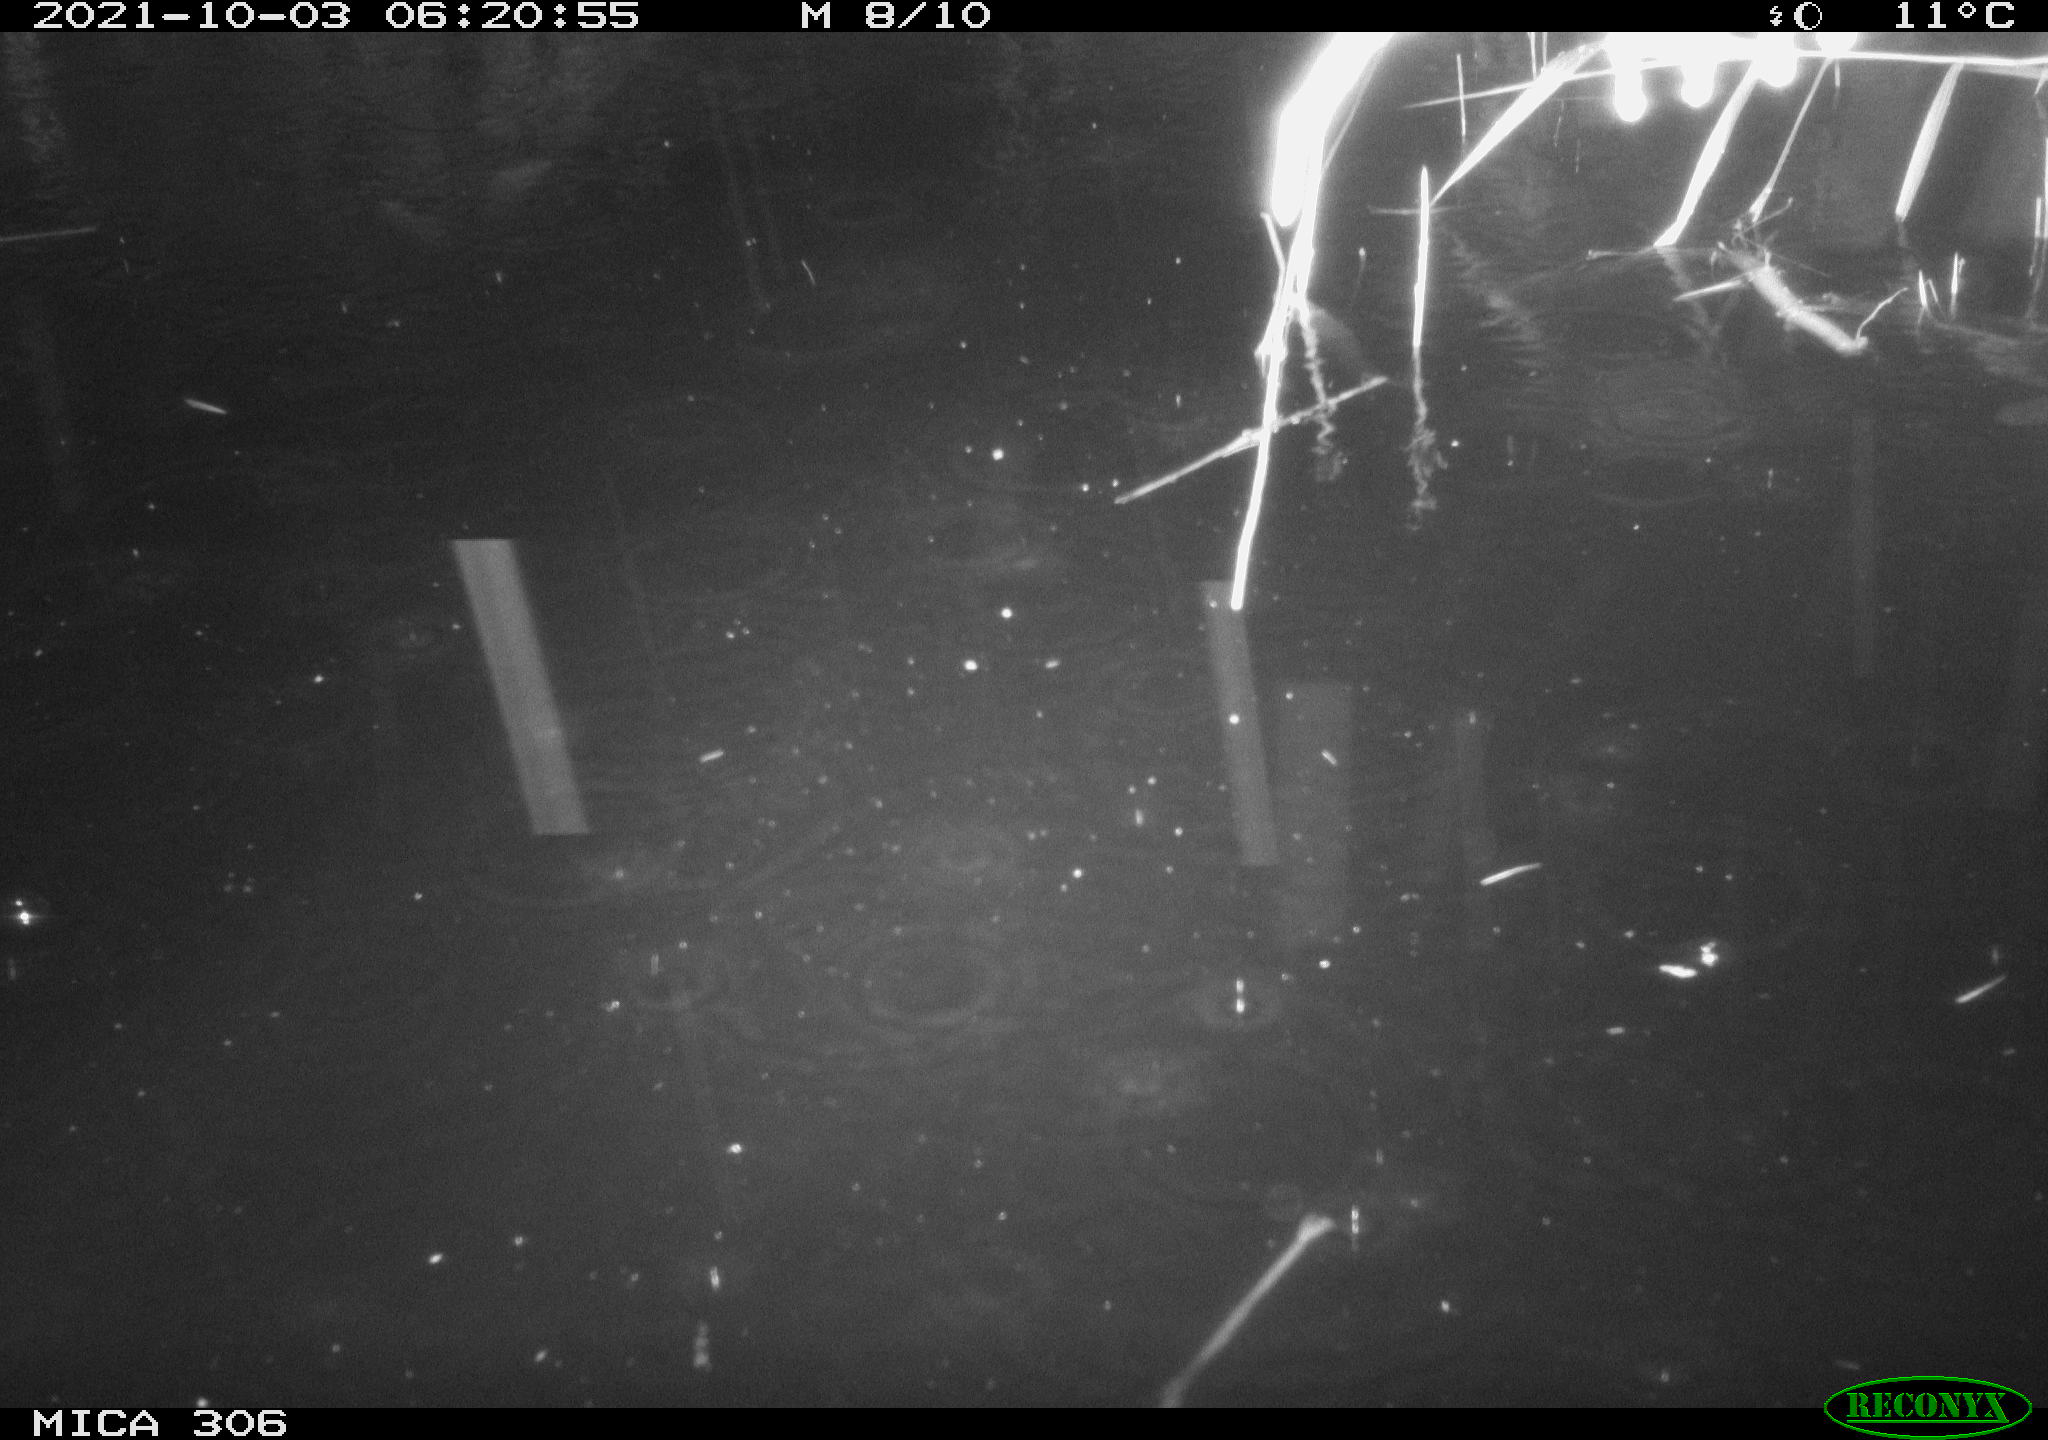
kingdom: Animalia
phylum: Chordata
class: Mammalia
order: Rodentia
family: Cricetidae
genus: Ondatra
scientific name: Ondatra zibethicus
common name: Muskrat
